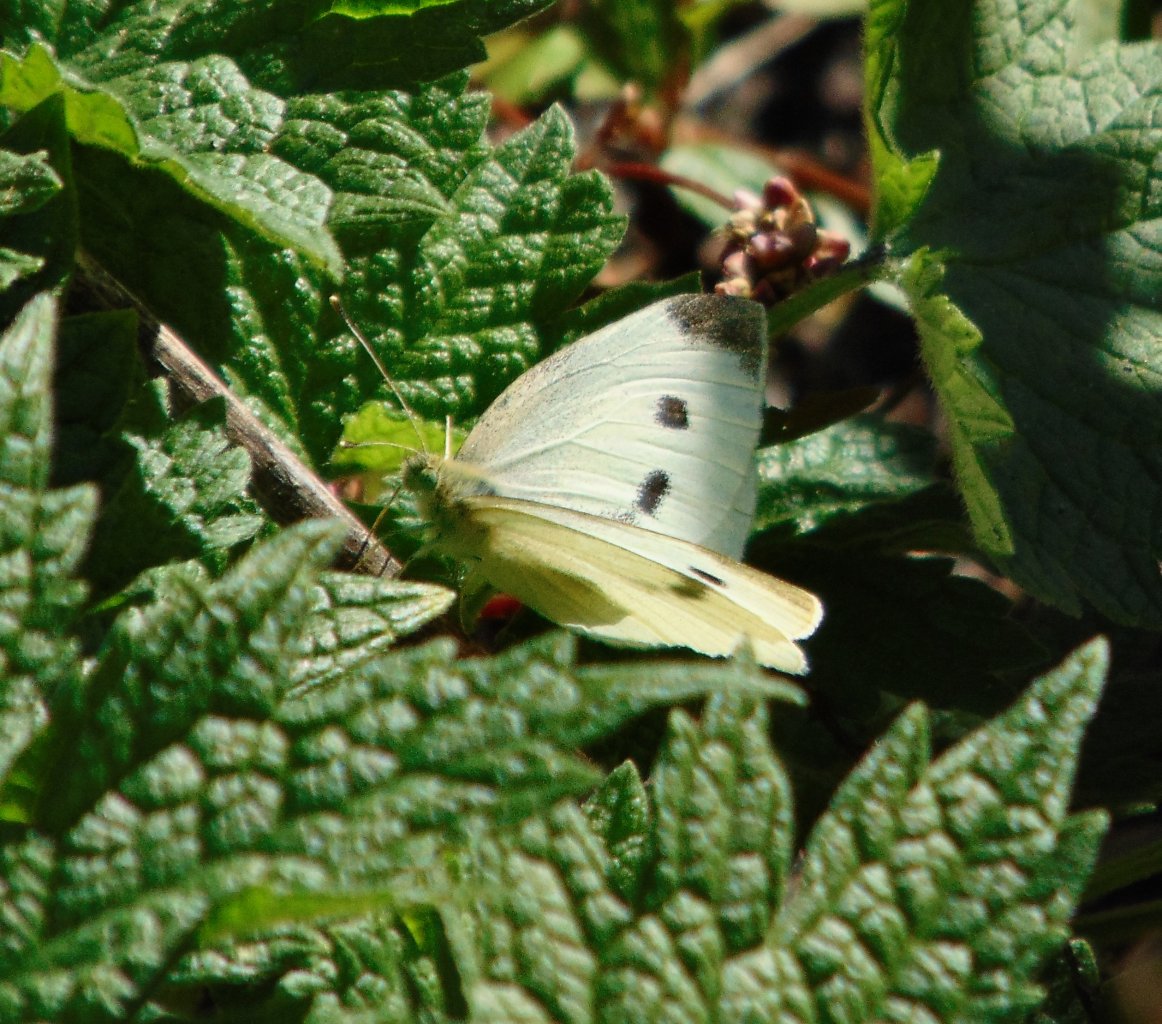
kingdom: Animalia
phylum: Arthropoda
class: Insecta
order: Lepidoptera
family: Pieridae
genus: Pieris
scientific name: Pieris rapae
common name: Cabbage White
